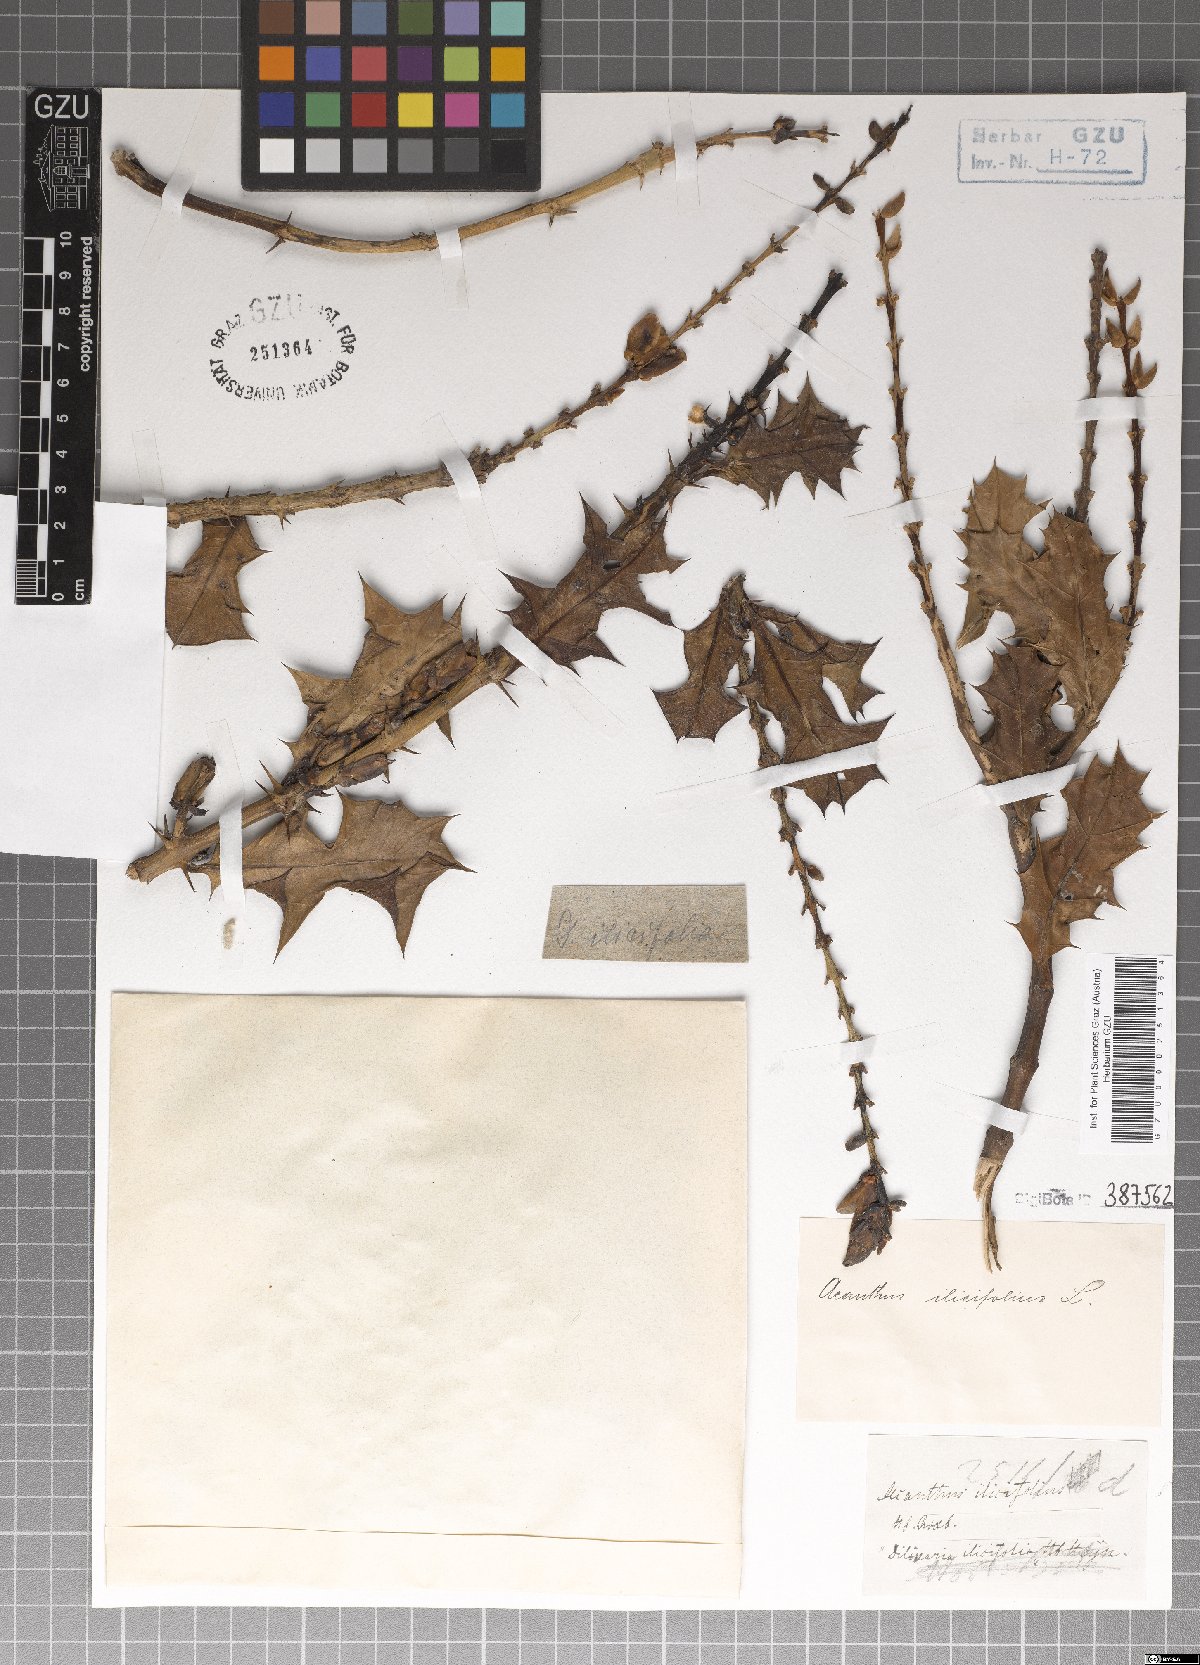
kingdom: Plantae
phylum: Tracheophyta
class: Magnoliopsida
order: Lamiales
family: Acanthaceae
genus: Acanthus
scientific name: Acanthus ilicifolius
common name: Holy mangrove
